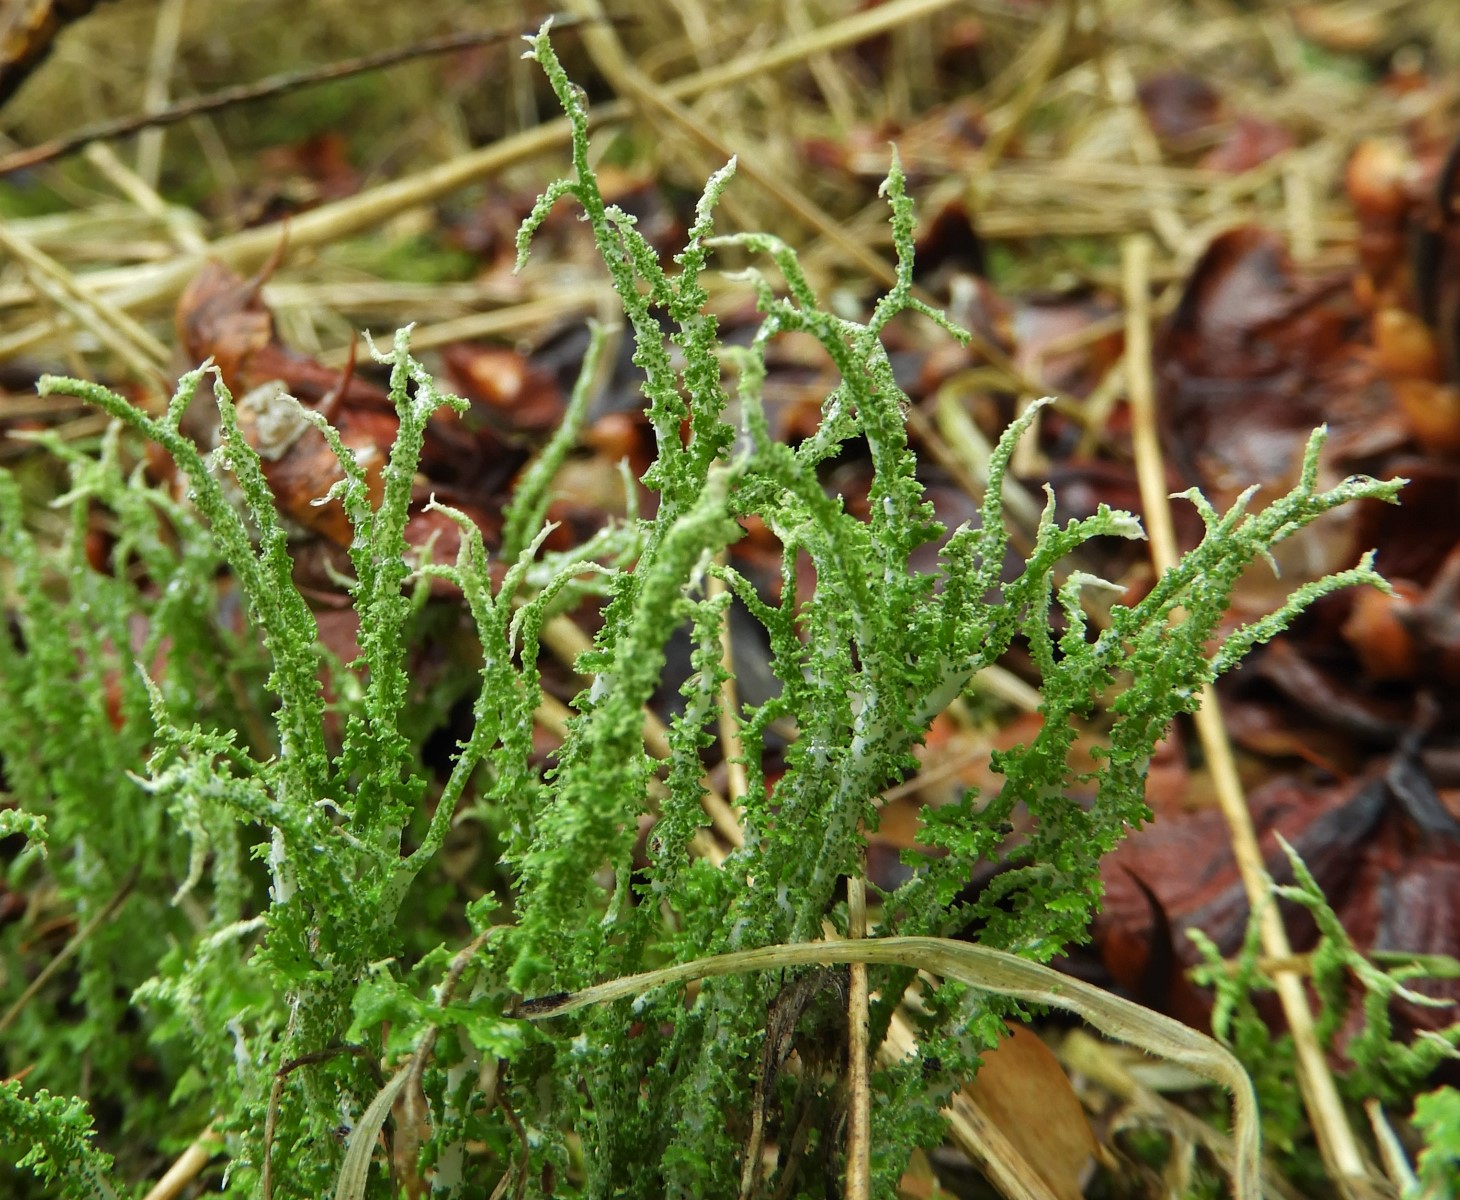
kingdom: Fungi
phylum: Ascomycota
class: Lecanoromycetes
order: Lecanorales
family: Cladoniaceae
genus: Cladonia
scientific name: Cladonia scabriuscula
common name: ru bægerlav
